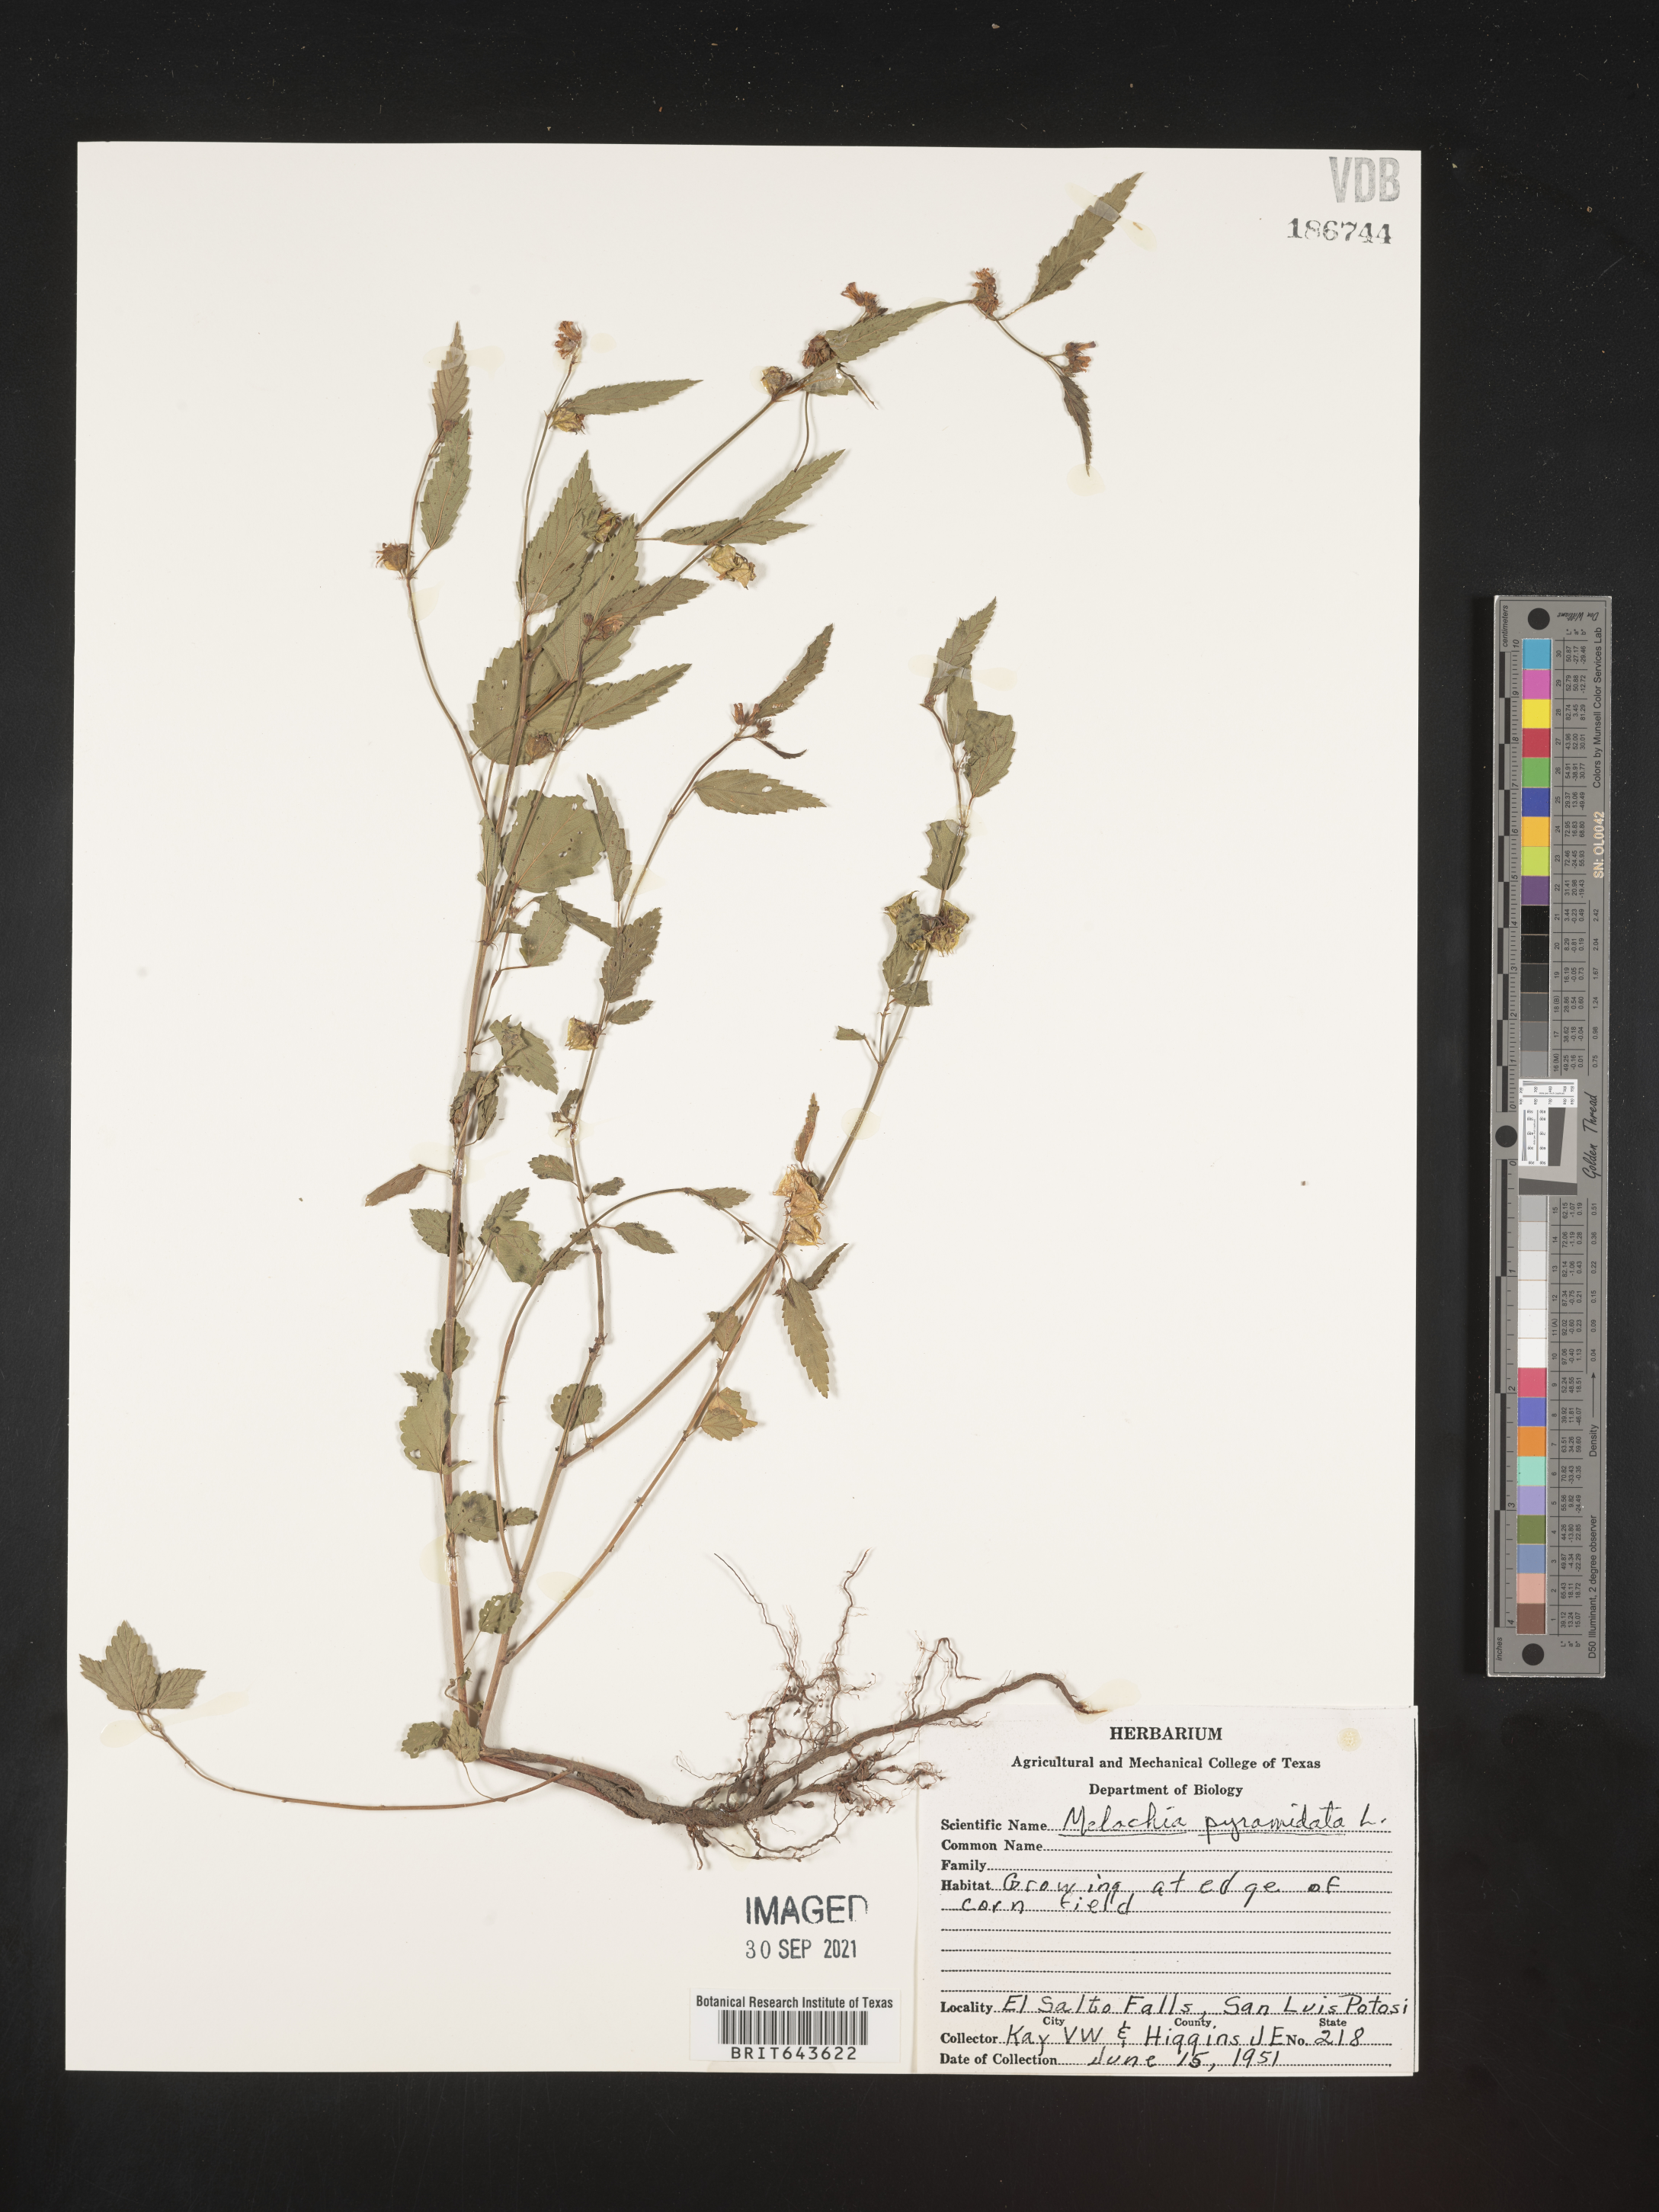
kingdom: Plantae
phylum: Tracheophyta
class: Magnoliopsida
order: Malvales
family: Malvaceae
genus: Melochia
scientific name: Melochia
